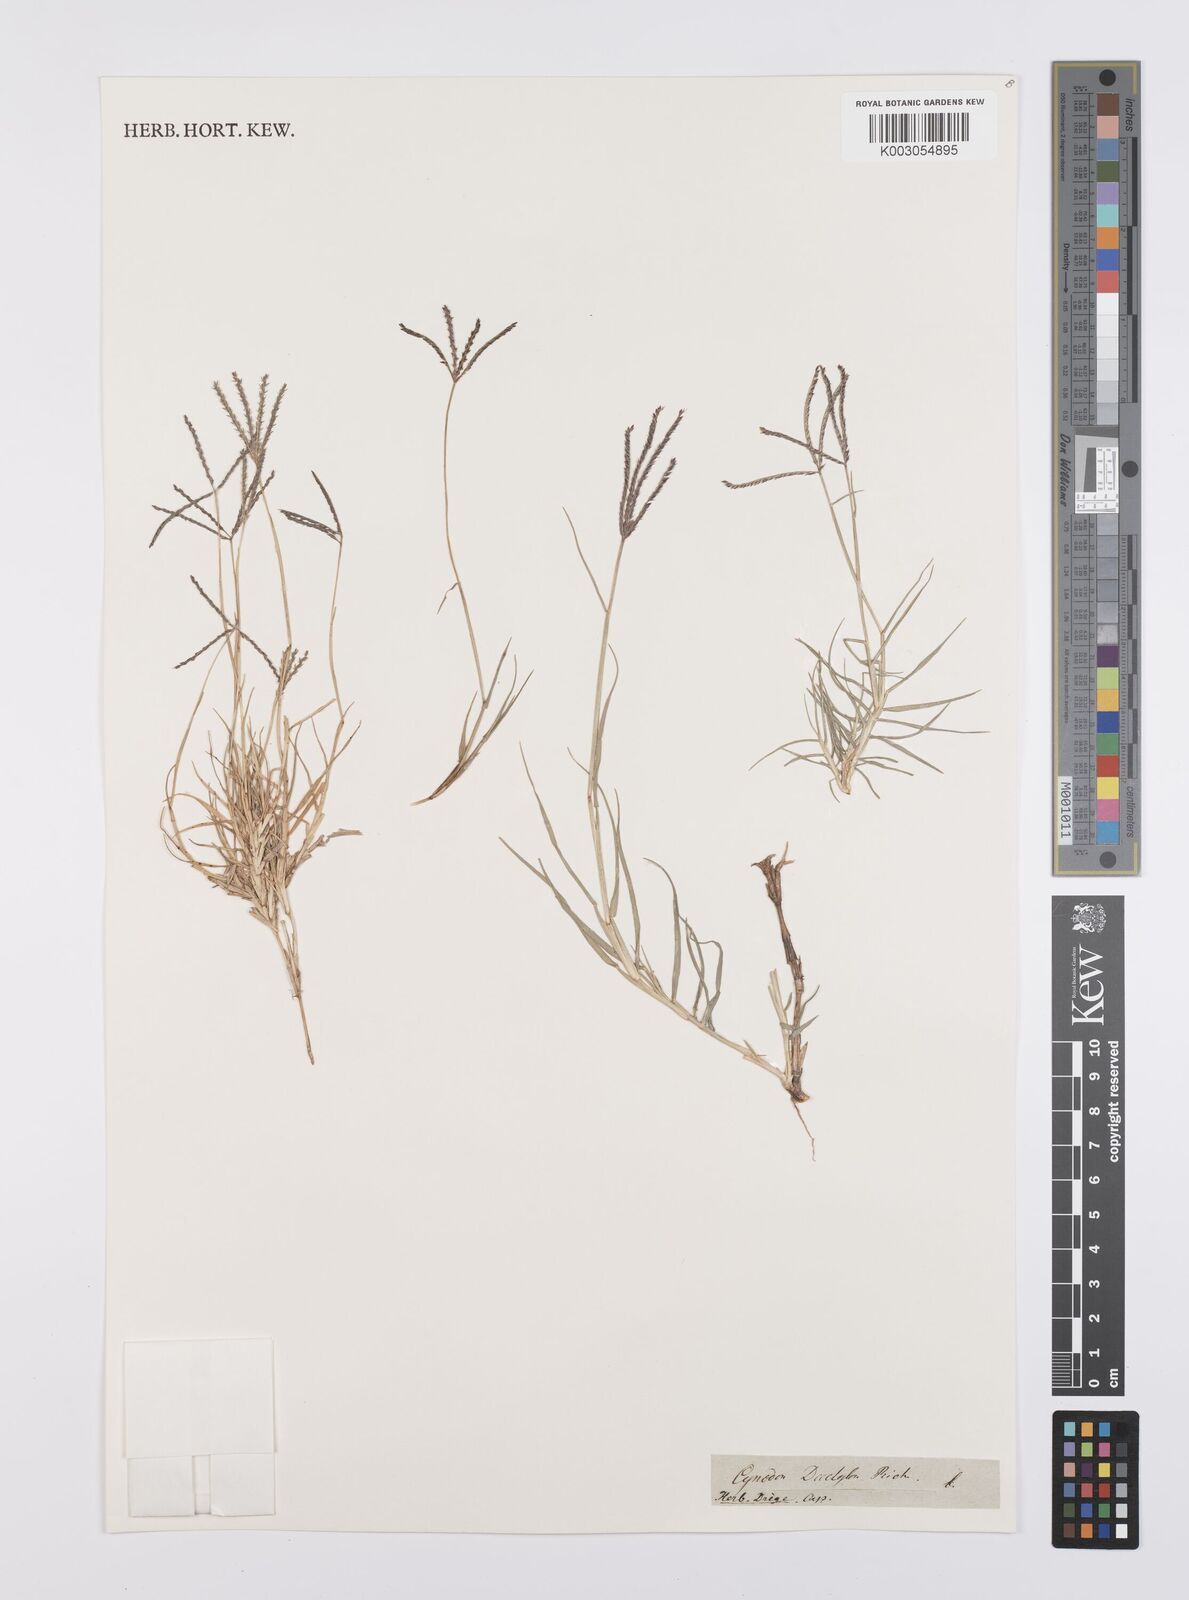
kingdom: Plantae
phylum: Tracheophyta
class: Liliopsida
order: Poales
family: Poaceae
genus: Cynodon
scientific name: Cynodon dactylon
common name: Bermuda grass
